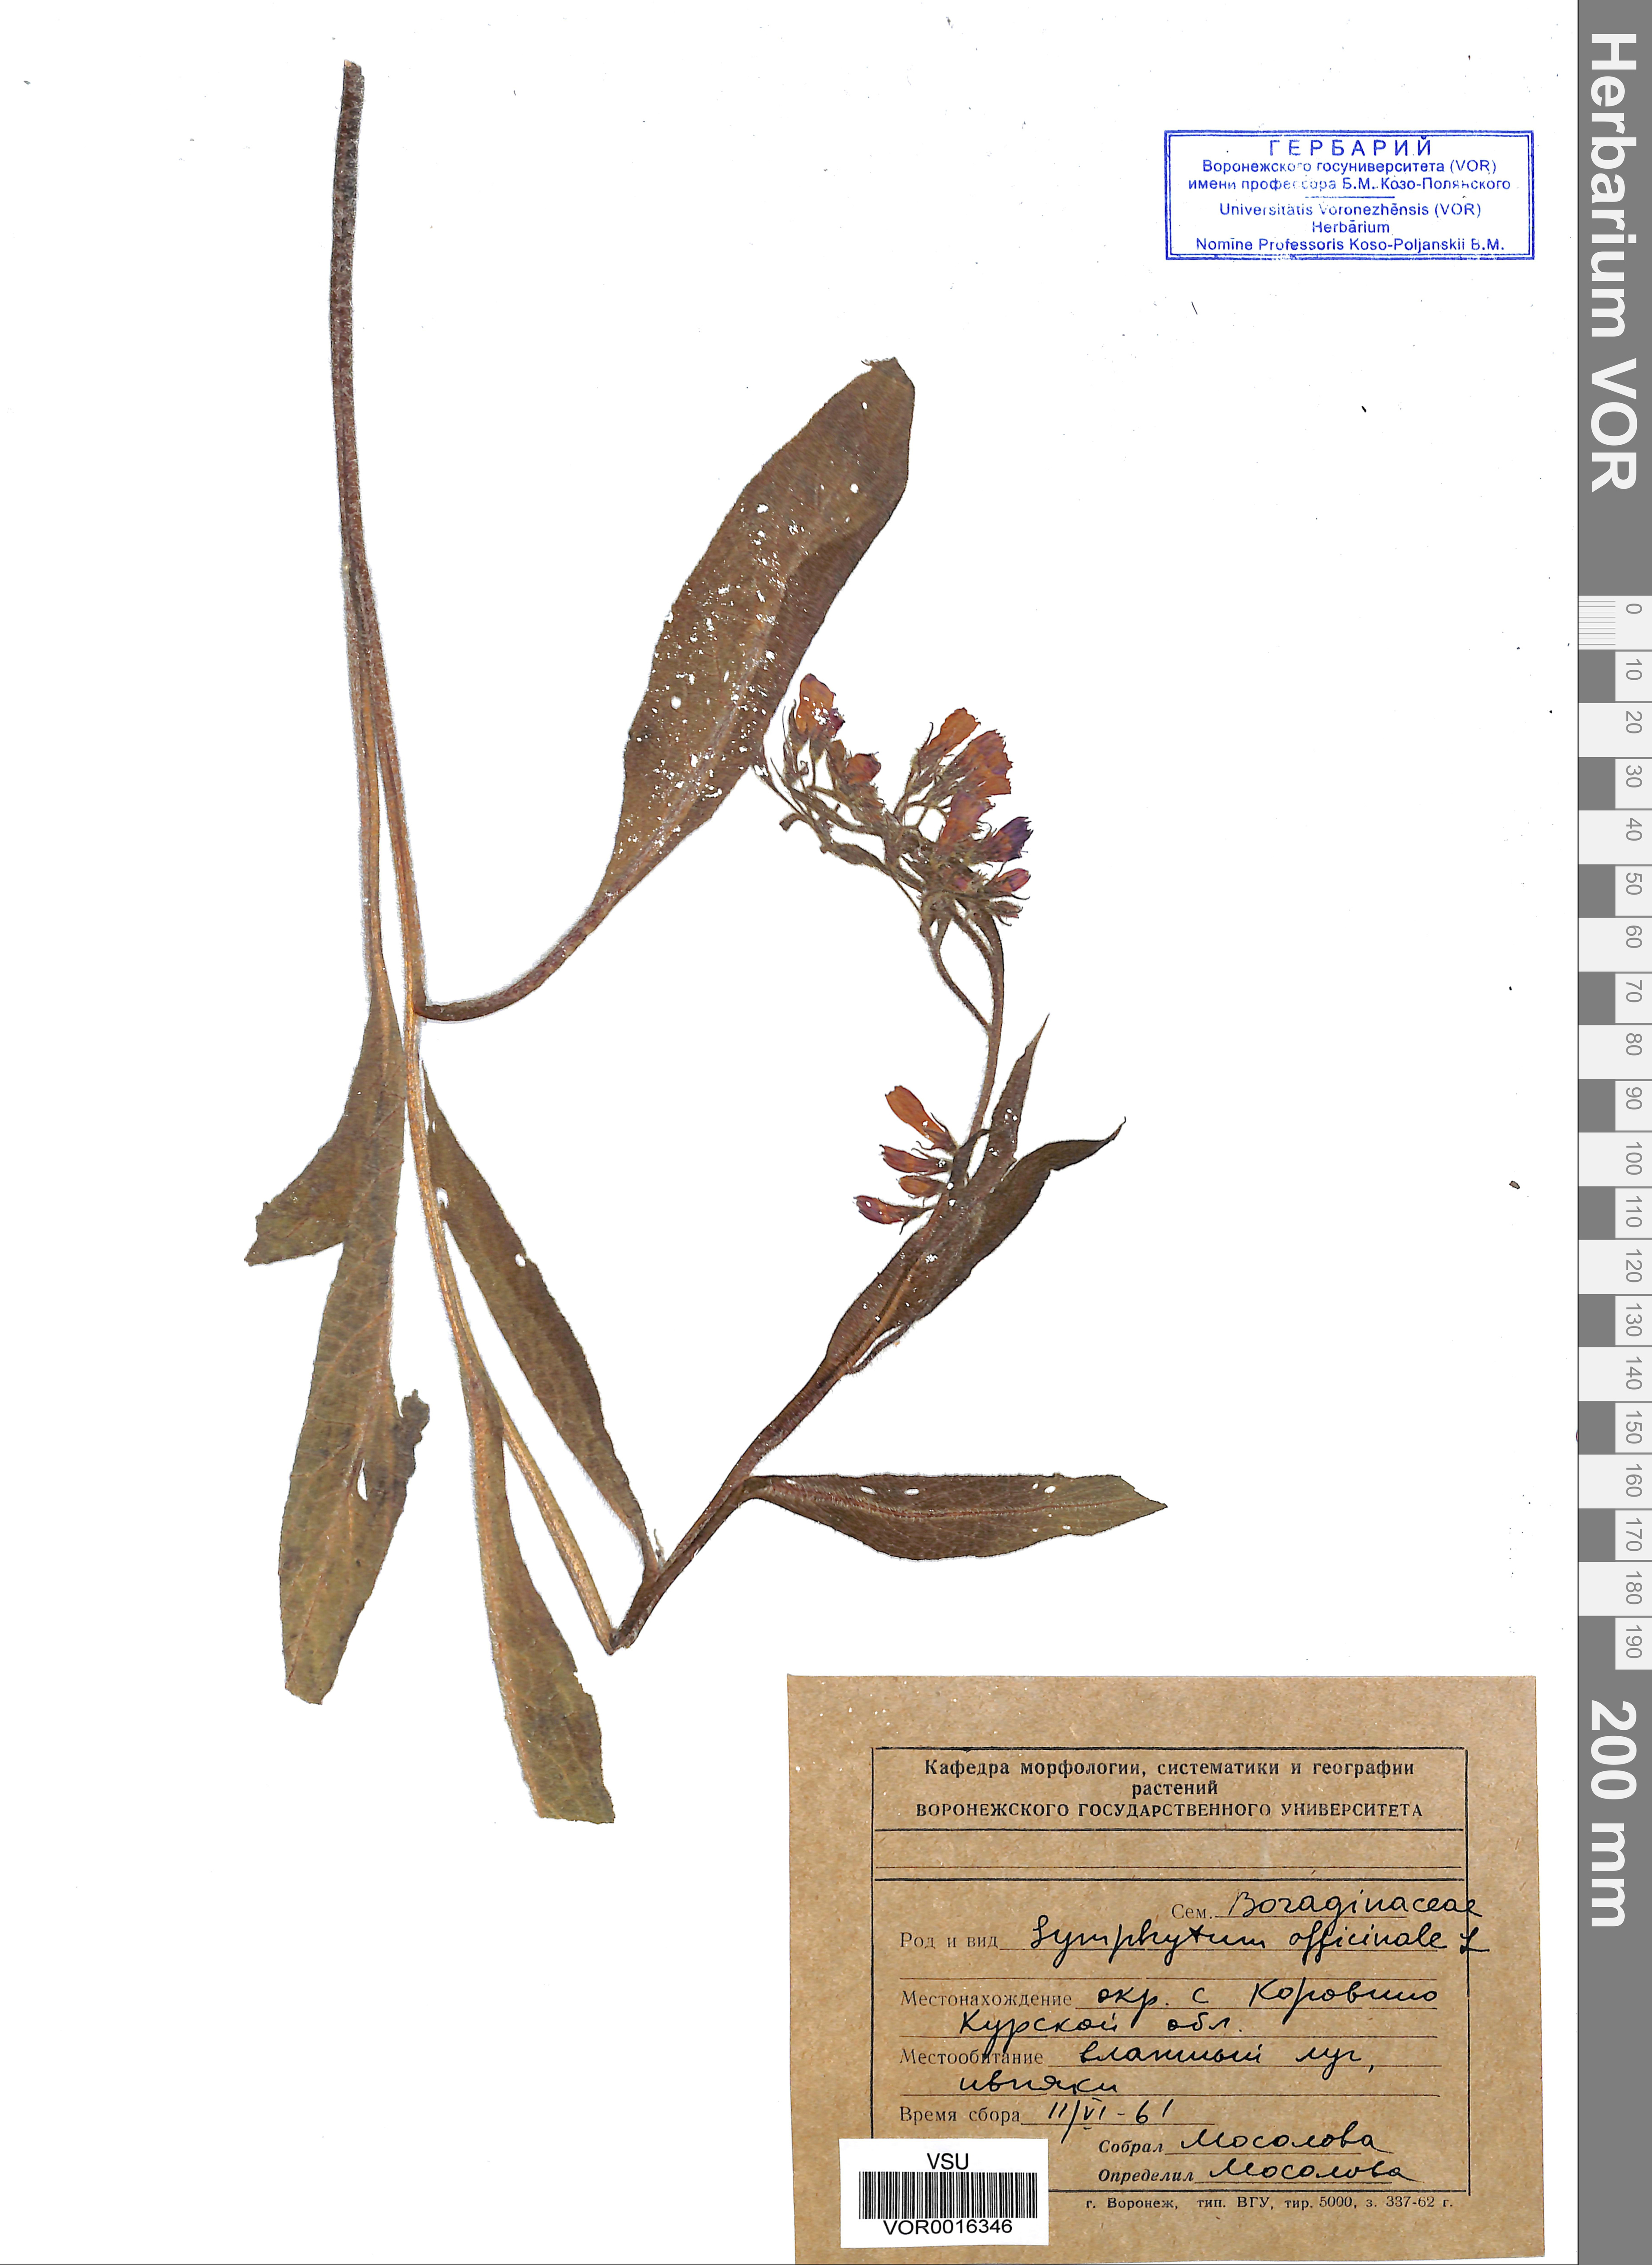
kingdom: Plantae
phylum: Tracheophyta
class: Magnoliopsida
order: Boraginales
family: Boraginaceae
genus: Symphytum
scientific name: Symphytum officinale
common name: Common comfrey
